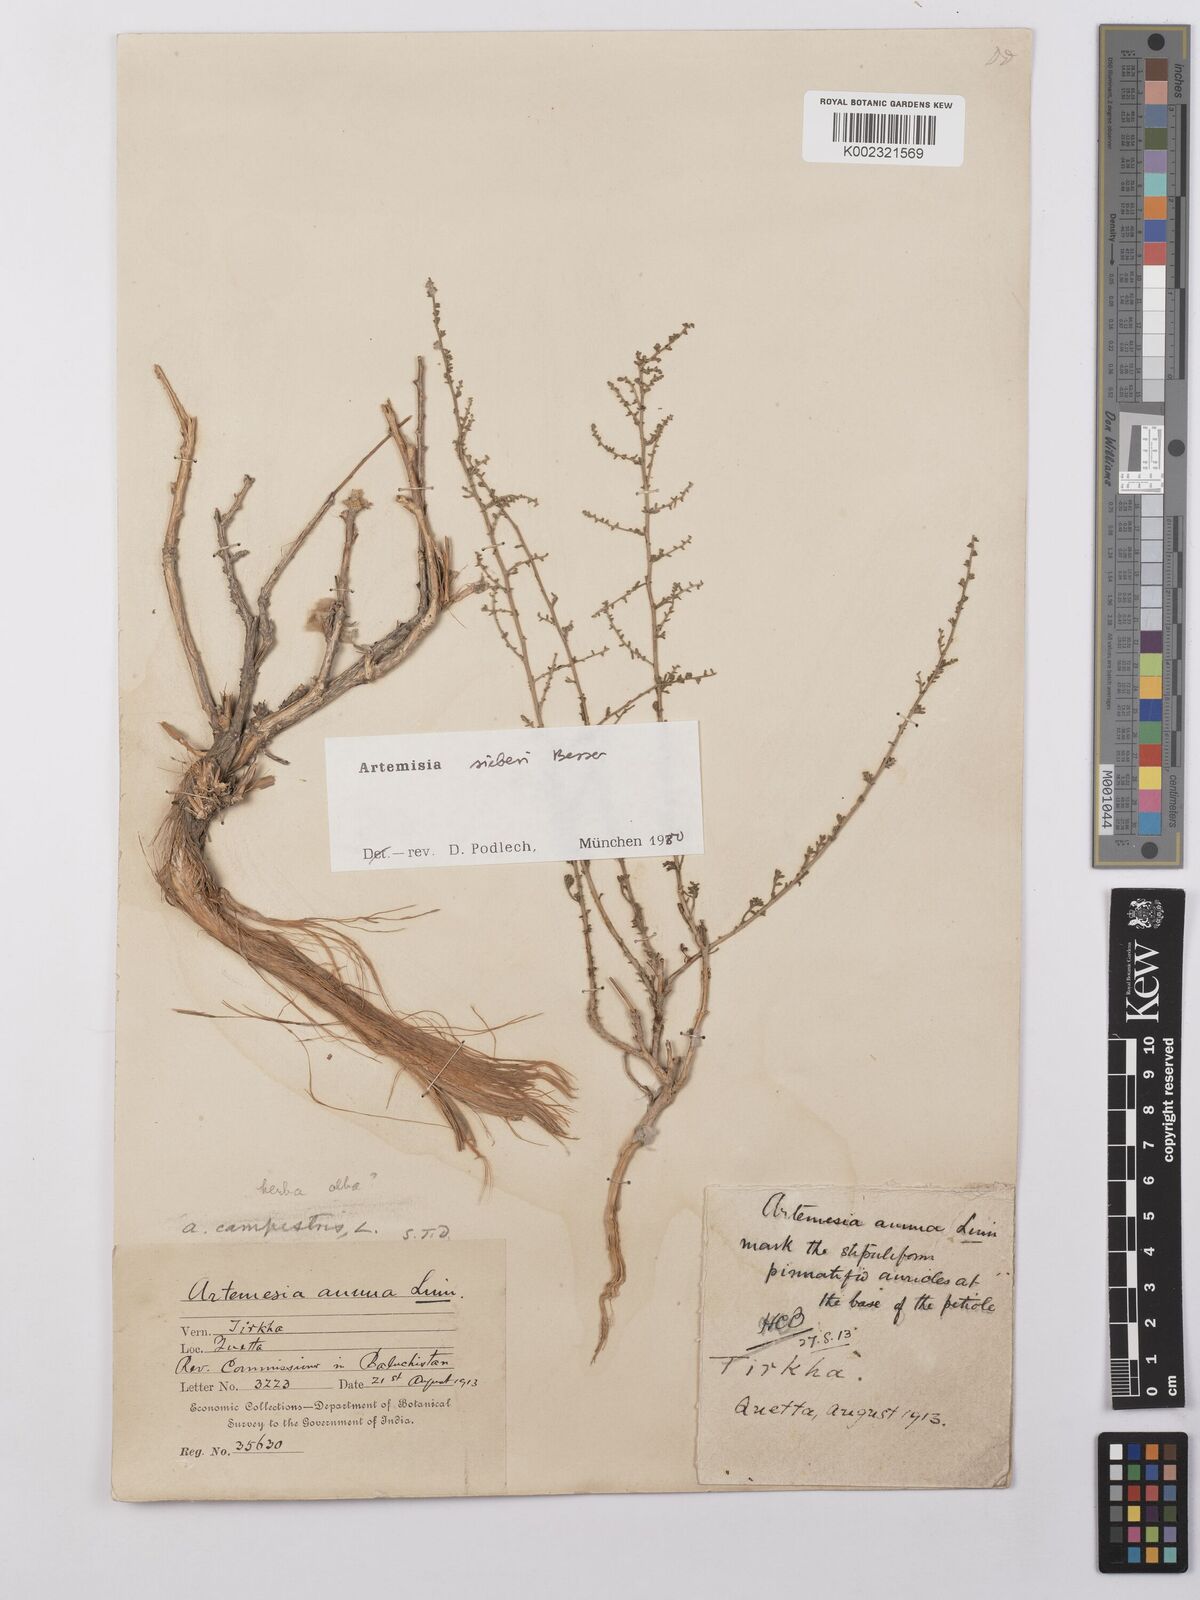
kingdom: Plantae
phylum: Tracheophyta
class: Magnoliopsida
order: Asterales
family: Asteraceae
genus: Artemisia
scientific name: Artemisia sieberi
